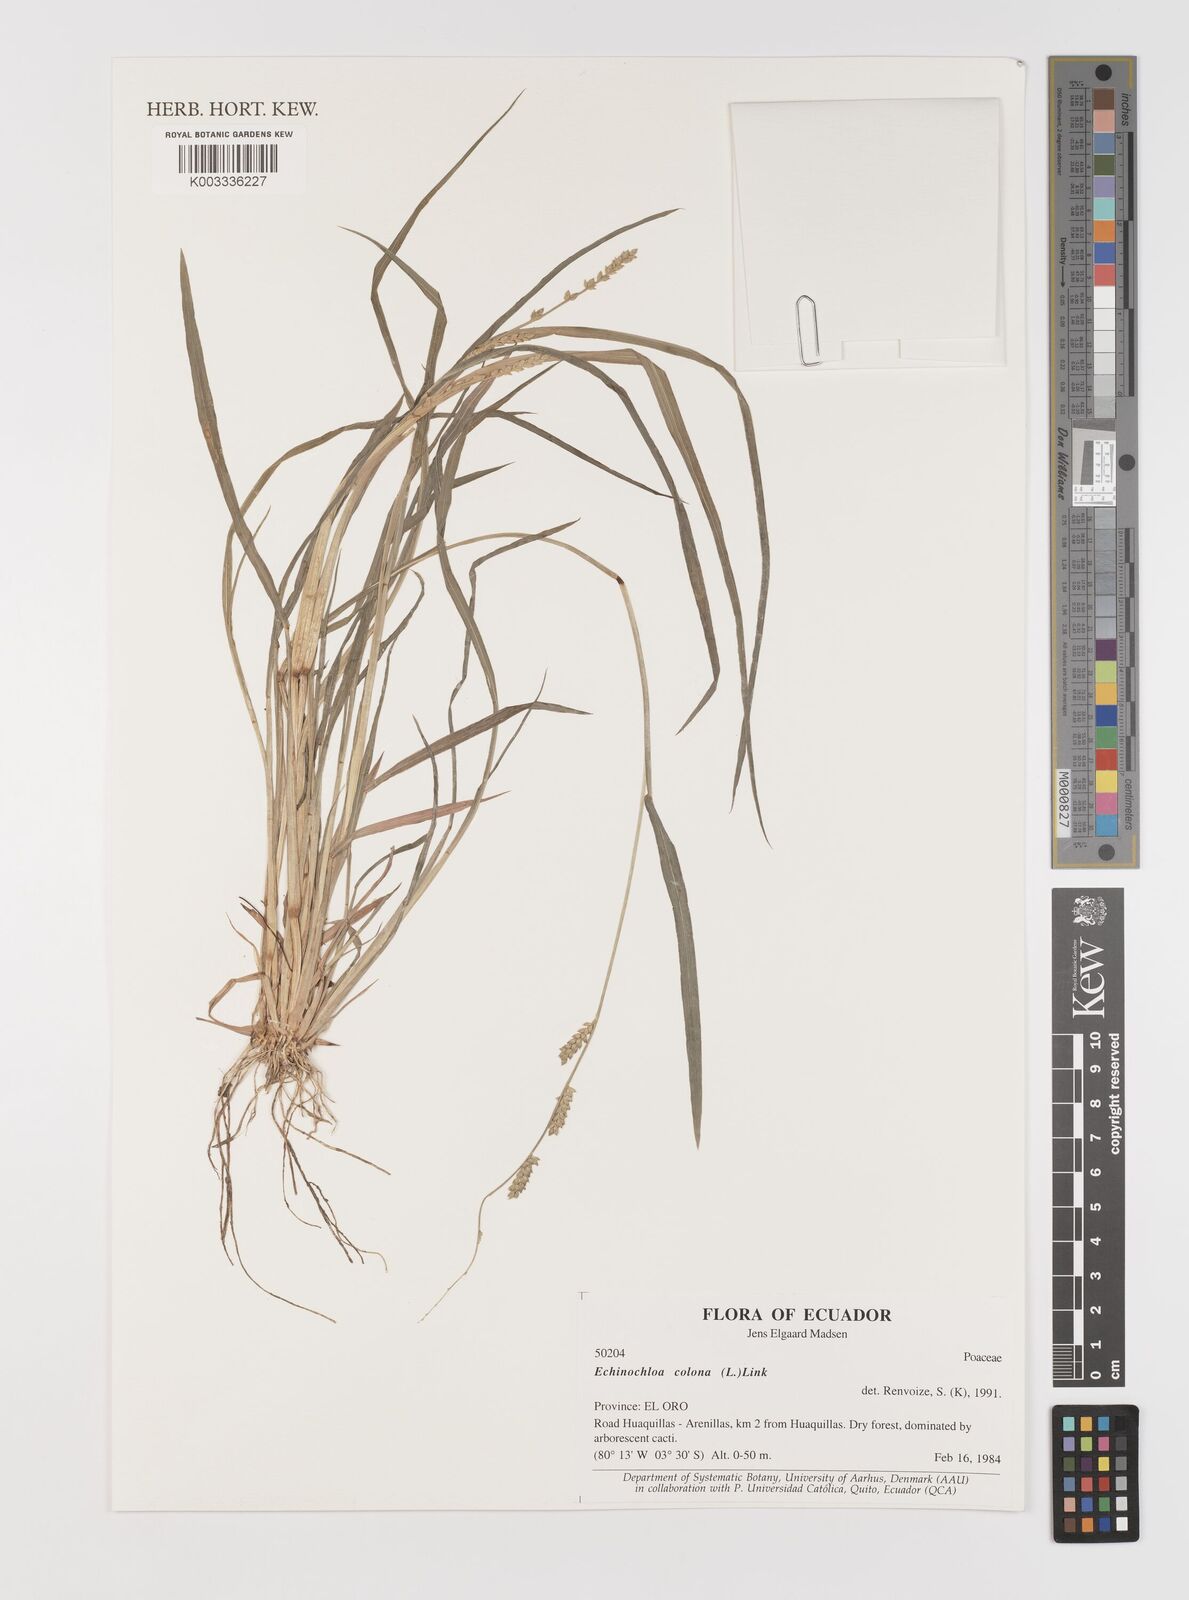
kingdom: Plantae
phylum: Tracheophyta
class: Liliopsida
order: Poales
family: Poaceae
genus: Echinochloa
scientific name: Echinochloa colonum
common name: Jungle rice
